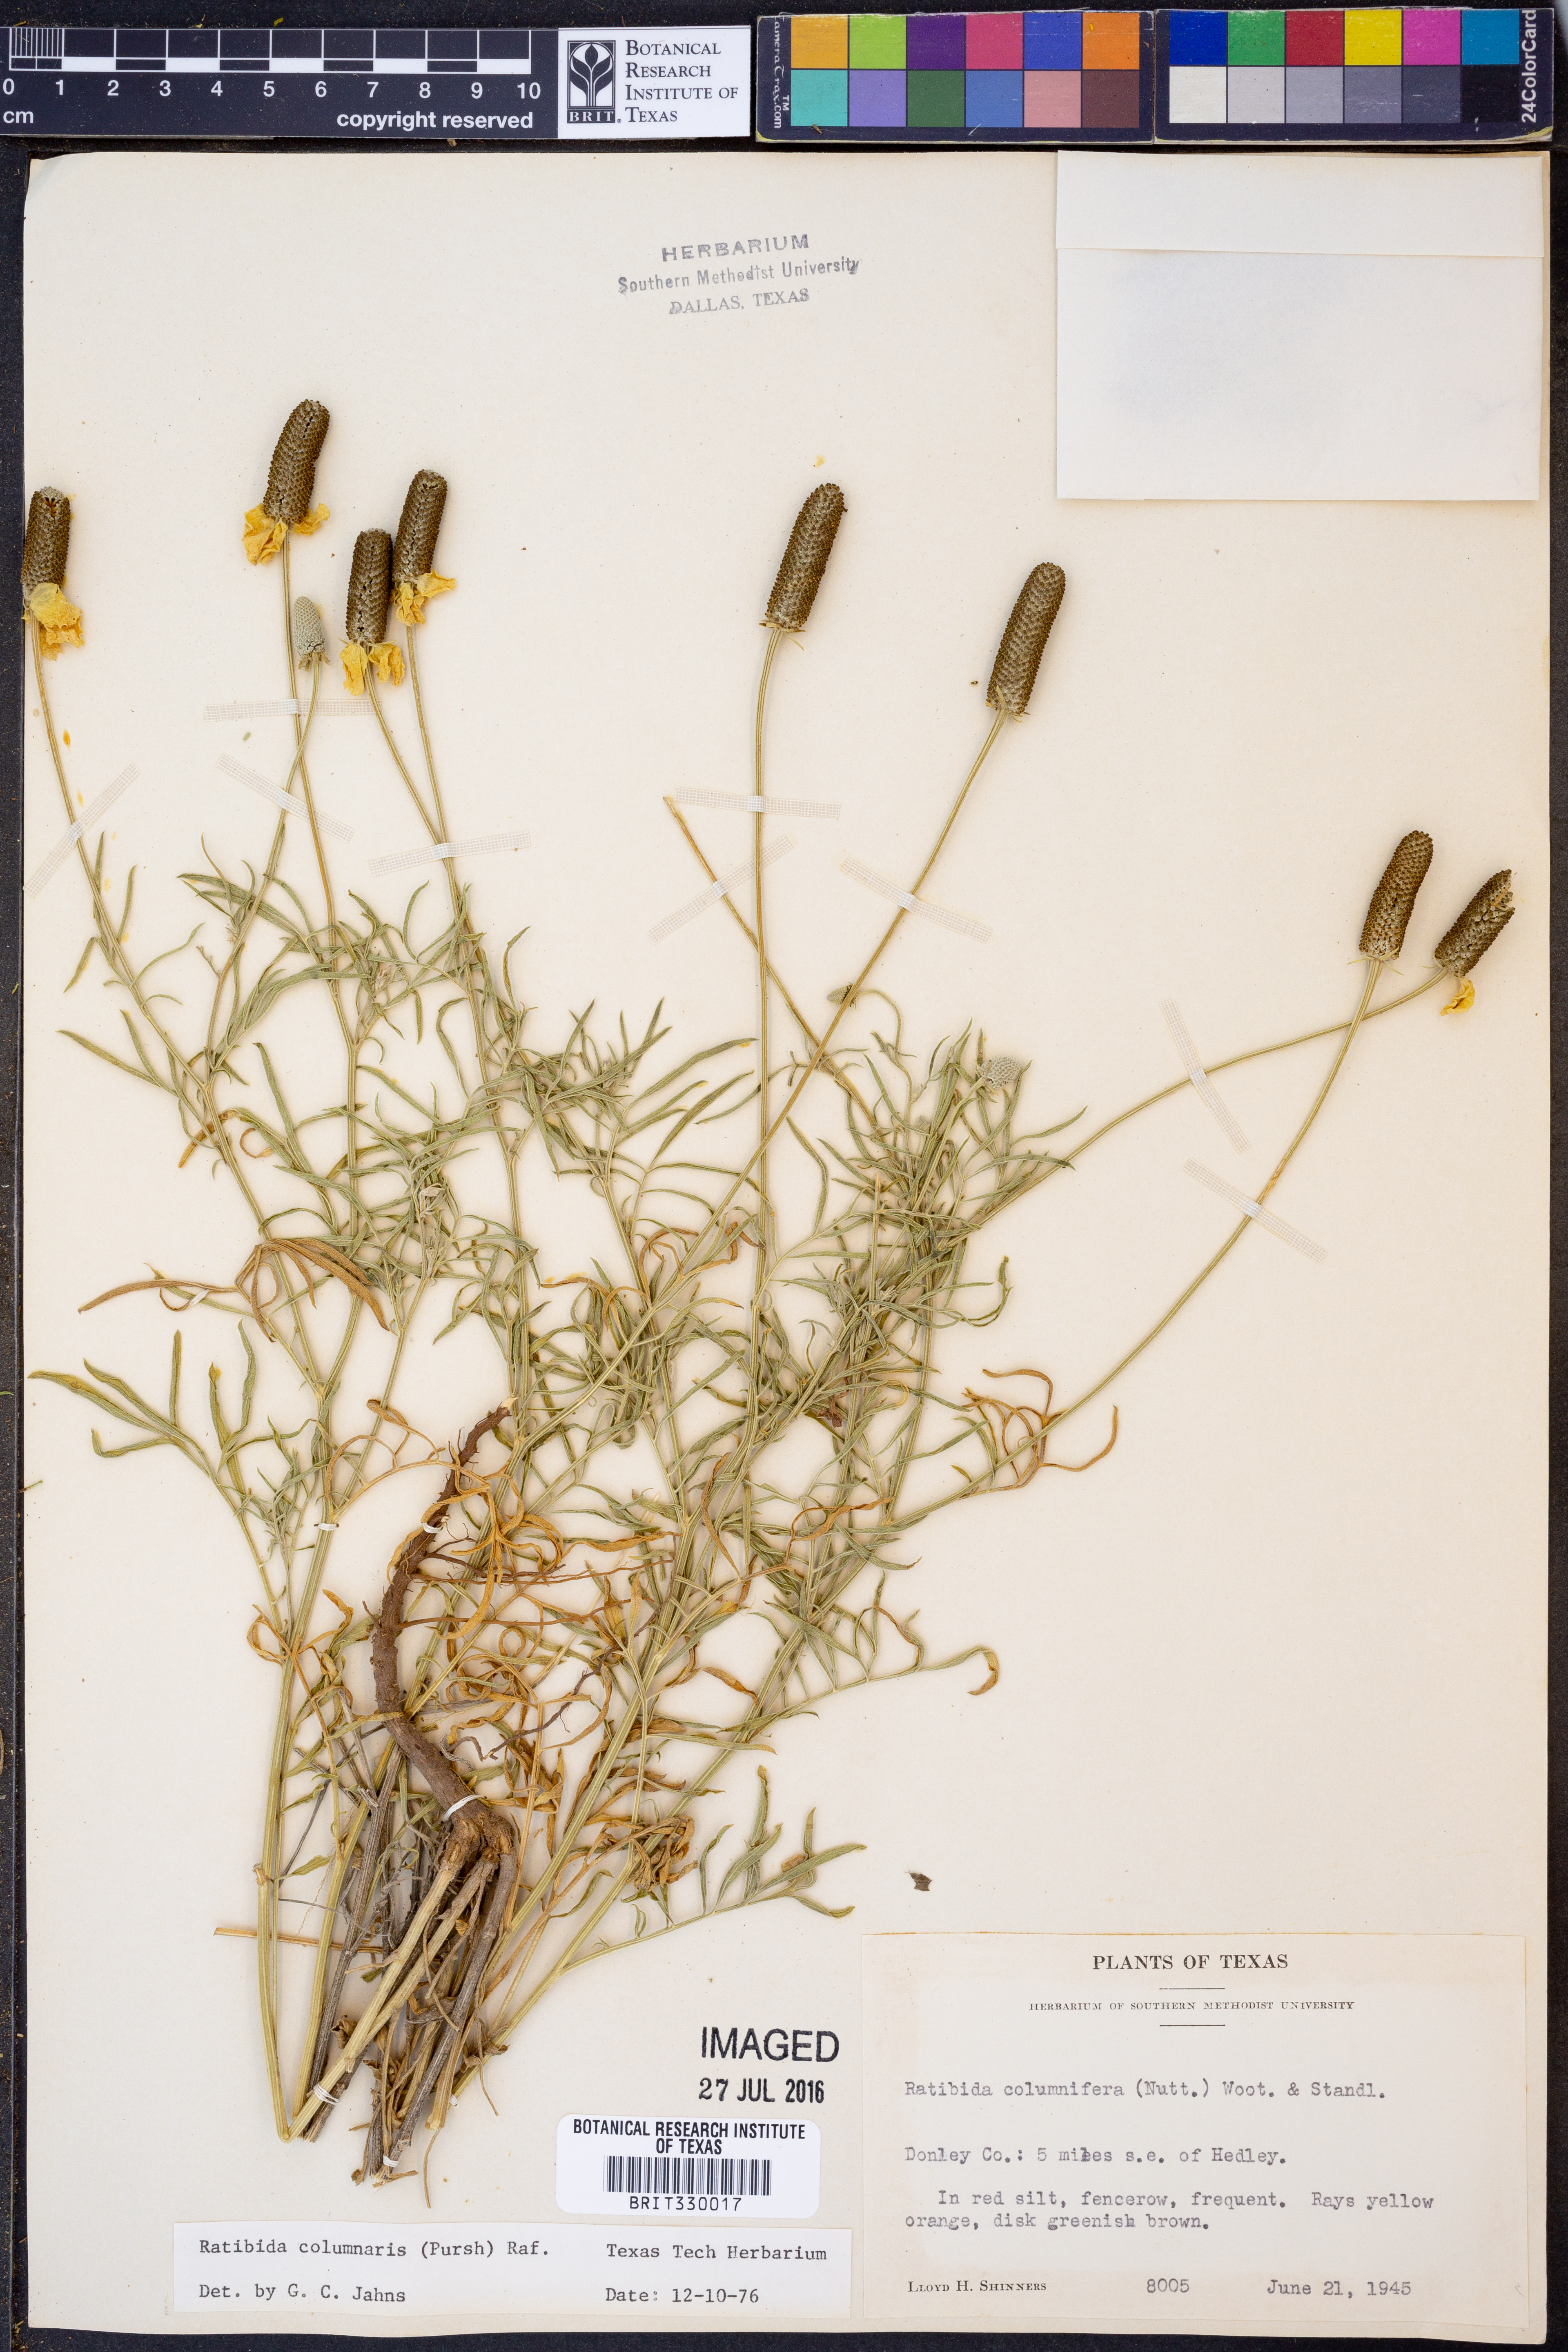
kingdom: Plantae
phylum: Tracheophyta
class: Magnoliopsida
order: Asterales
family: Asteraceae
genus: Ratibida
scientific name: Ratibida columnifera
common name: Prairie coneflower
